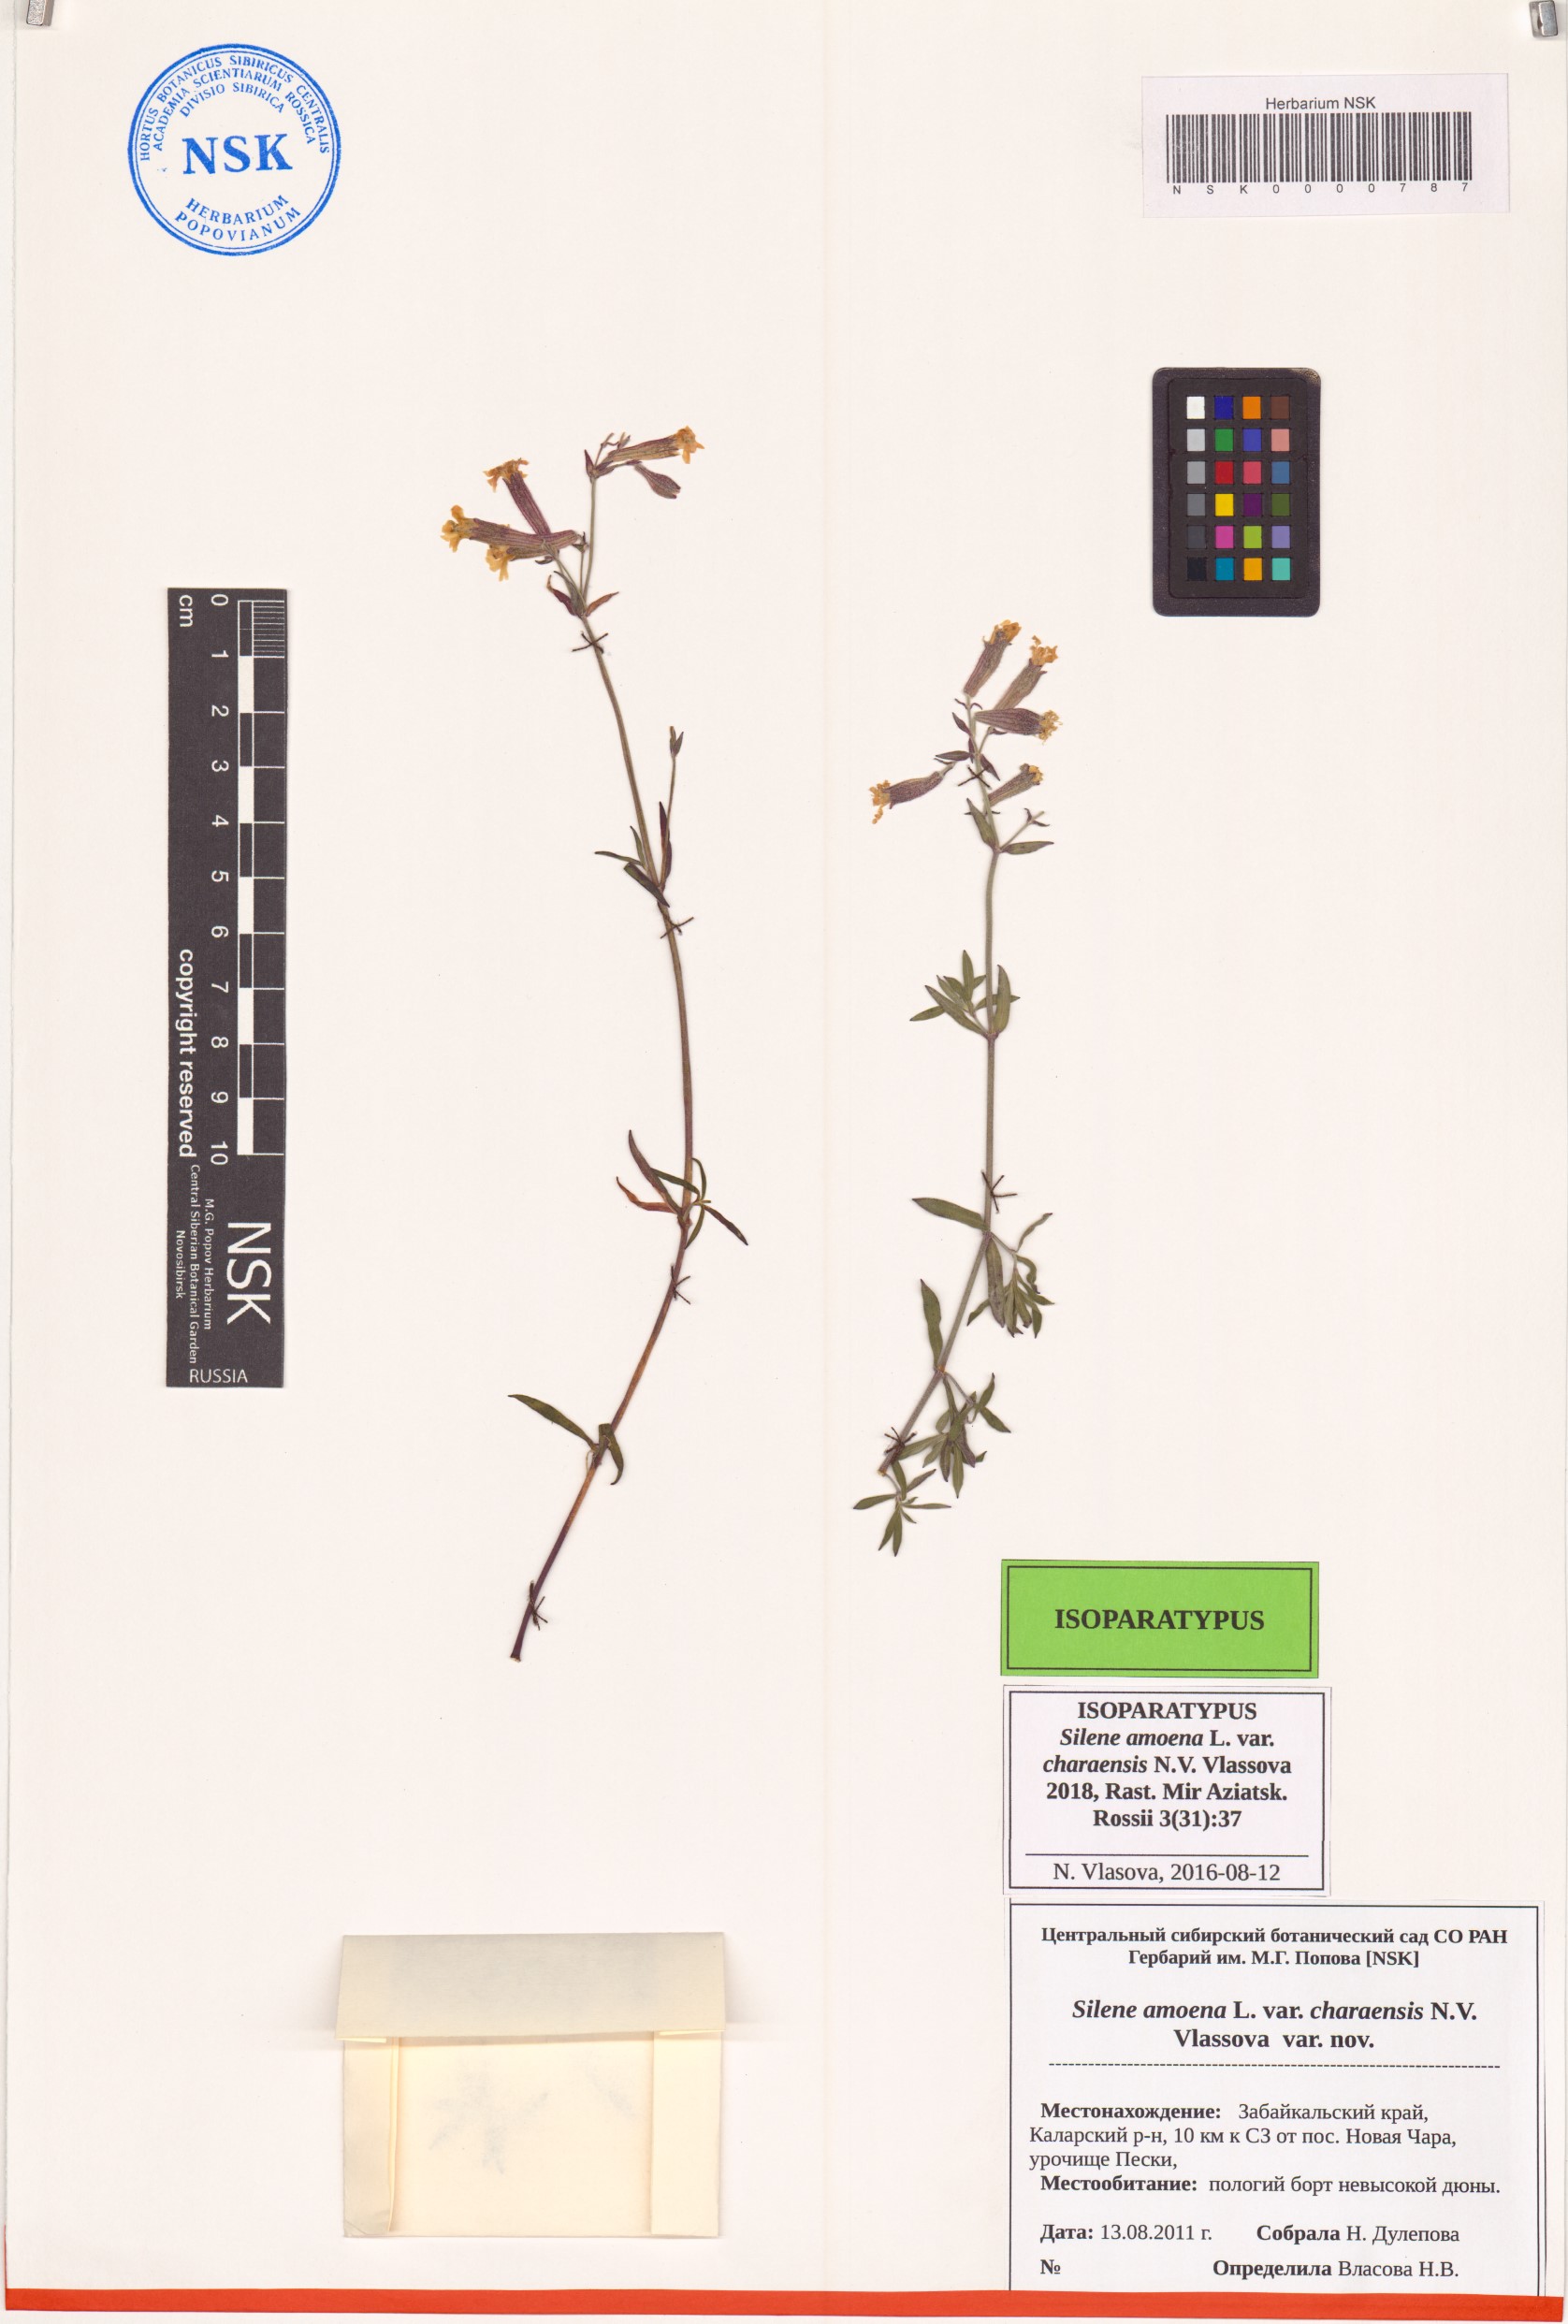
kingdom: Plantae
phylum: Tracheophyta
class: Magnoliopsida
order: Caryophyllales
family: Caryophyllaceae
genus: Silene
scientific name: Silene amoena
